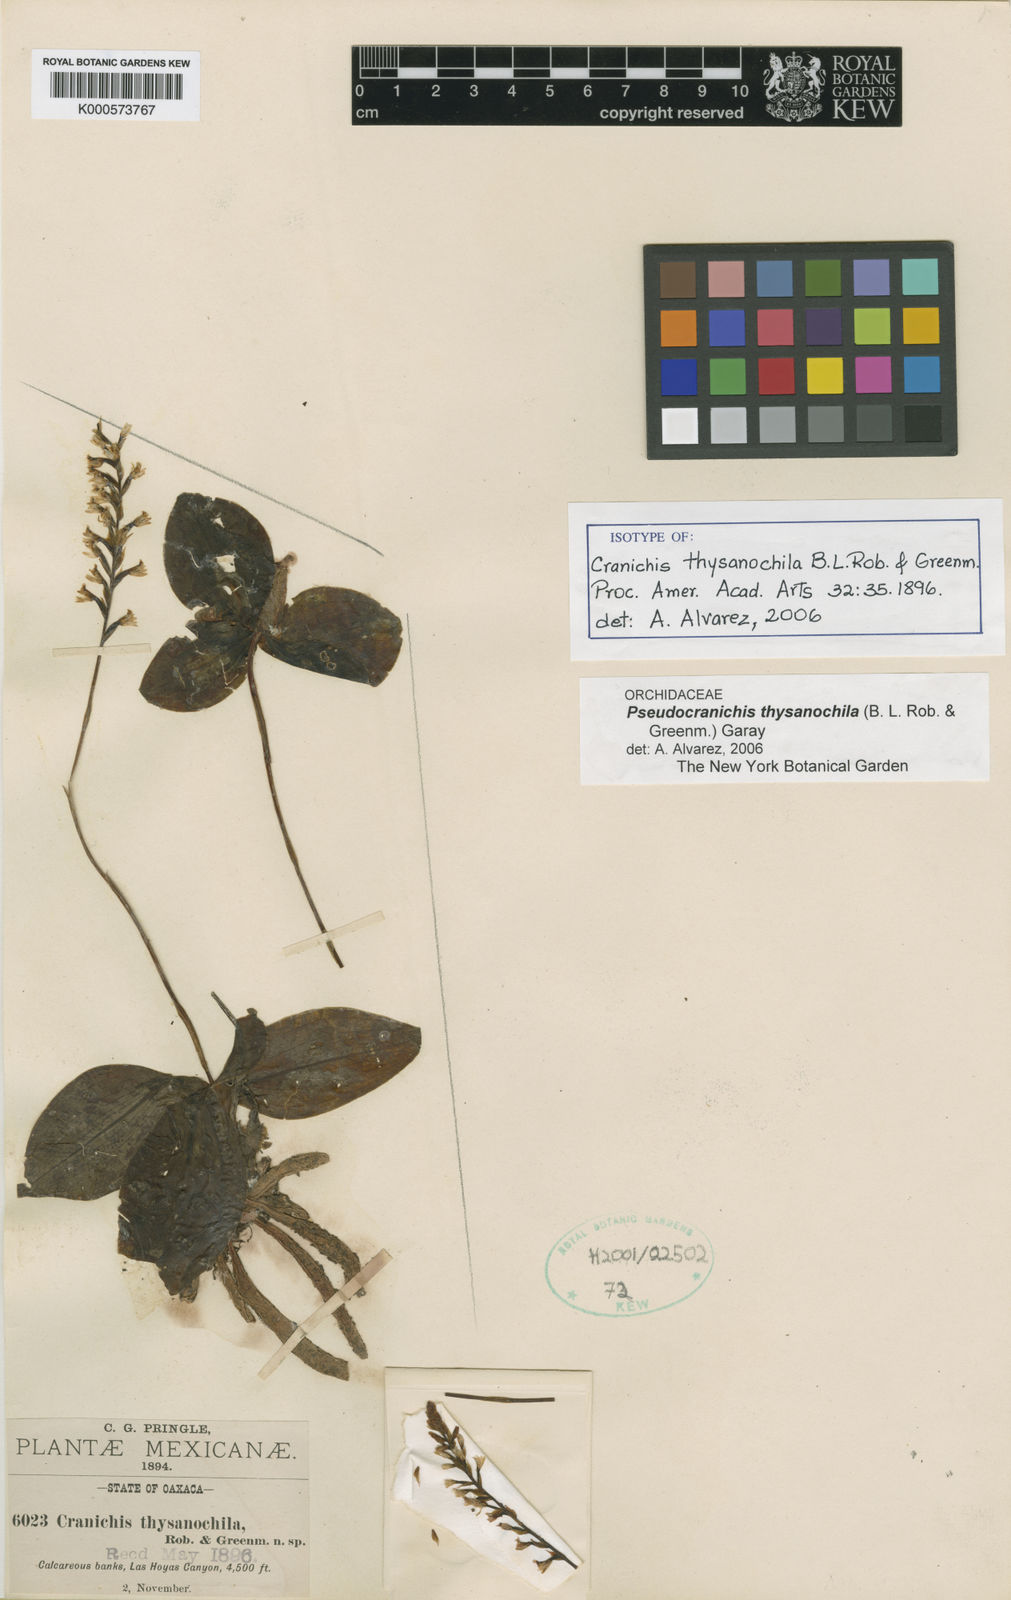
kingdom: Plantae
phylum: Tracheophyta
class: Liliopsida
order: Asparagales
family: Orchidaceae
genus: Galeoglossum
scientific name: Galeoglossum thysanochilum
